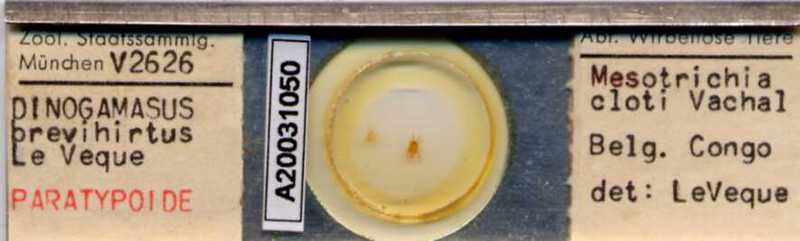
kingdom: Animalia
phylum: Arthropoda
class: Arachnida
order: Mesostigmata
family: Laelapidae
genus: Dinogamasus
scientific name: Dinogamasus
